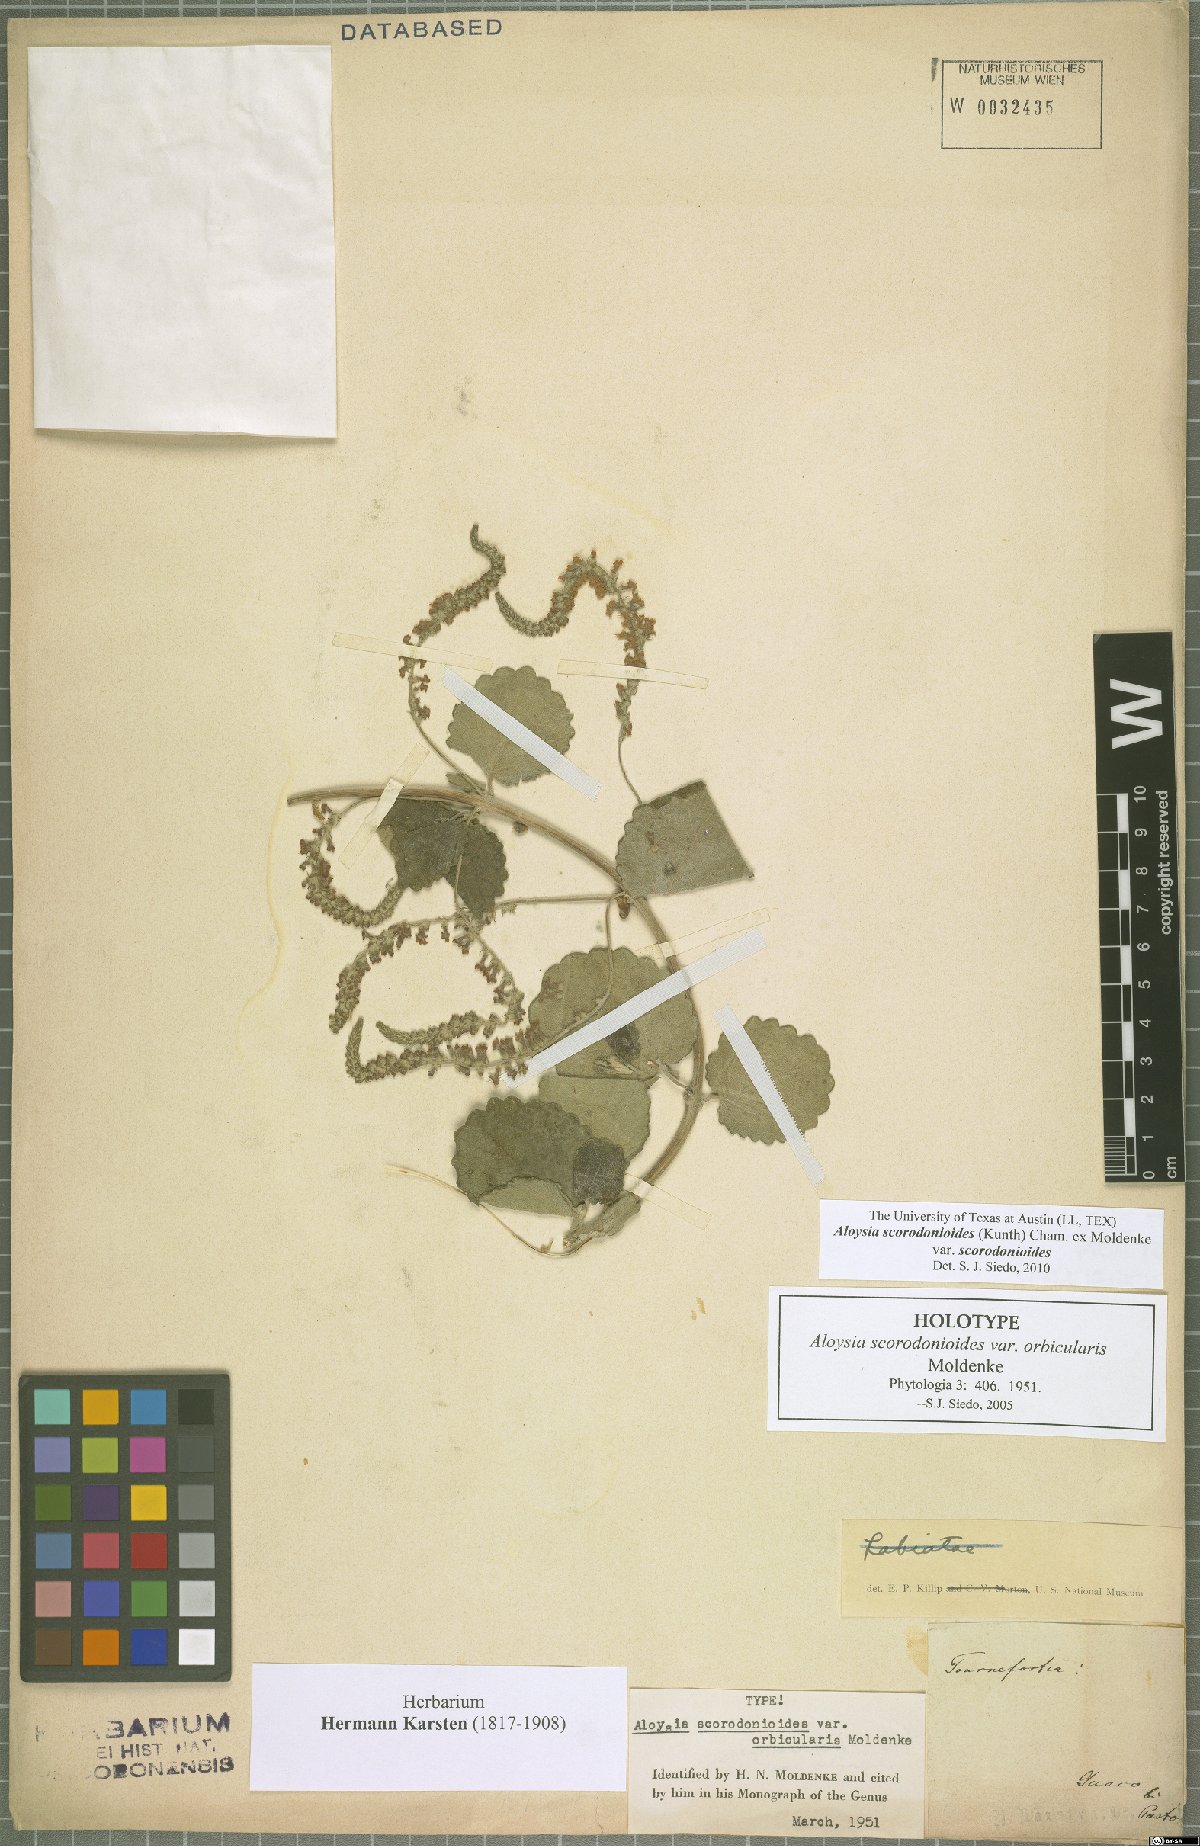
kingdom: Plantae
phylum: Tracheophyta
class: Magnoliopsida
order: Lamiales
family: Verbenaceae
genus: Aloysia
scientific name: Aloysia scorodonioides
